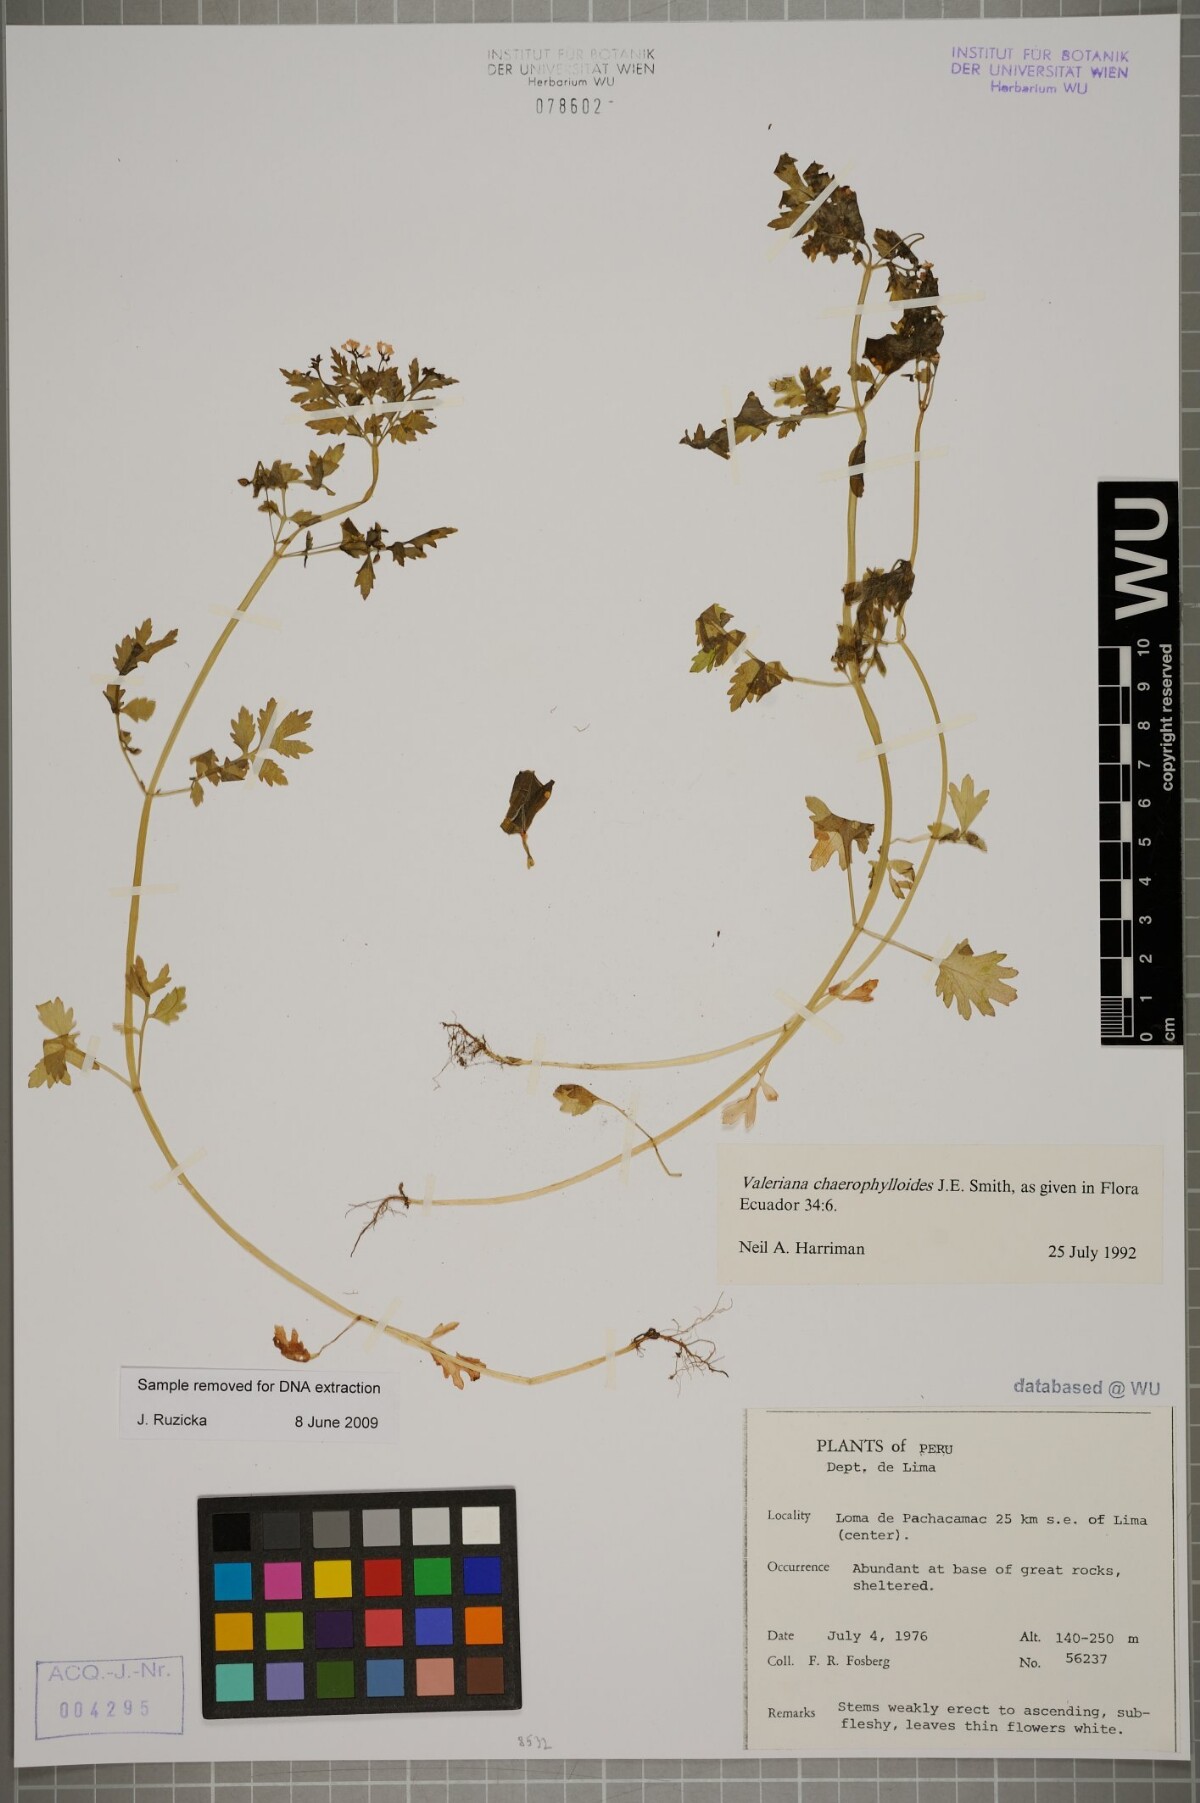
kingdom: Plantae
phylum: Tracheophyta
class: Magnoliopsida
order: Dipsacales
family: Caprifoliaceae
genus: Valeriana
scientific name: Valeriana chaerophylloides
